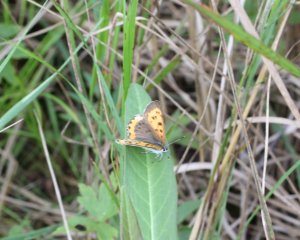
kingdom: Animalia
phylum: Arthropoda
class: Insecta
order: Lepidoptera
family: Sesiidae
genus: Sesia
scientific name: Sesia Lycaena hyllus
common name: Bronze Copper
